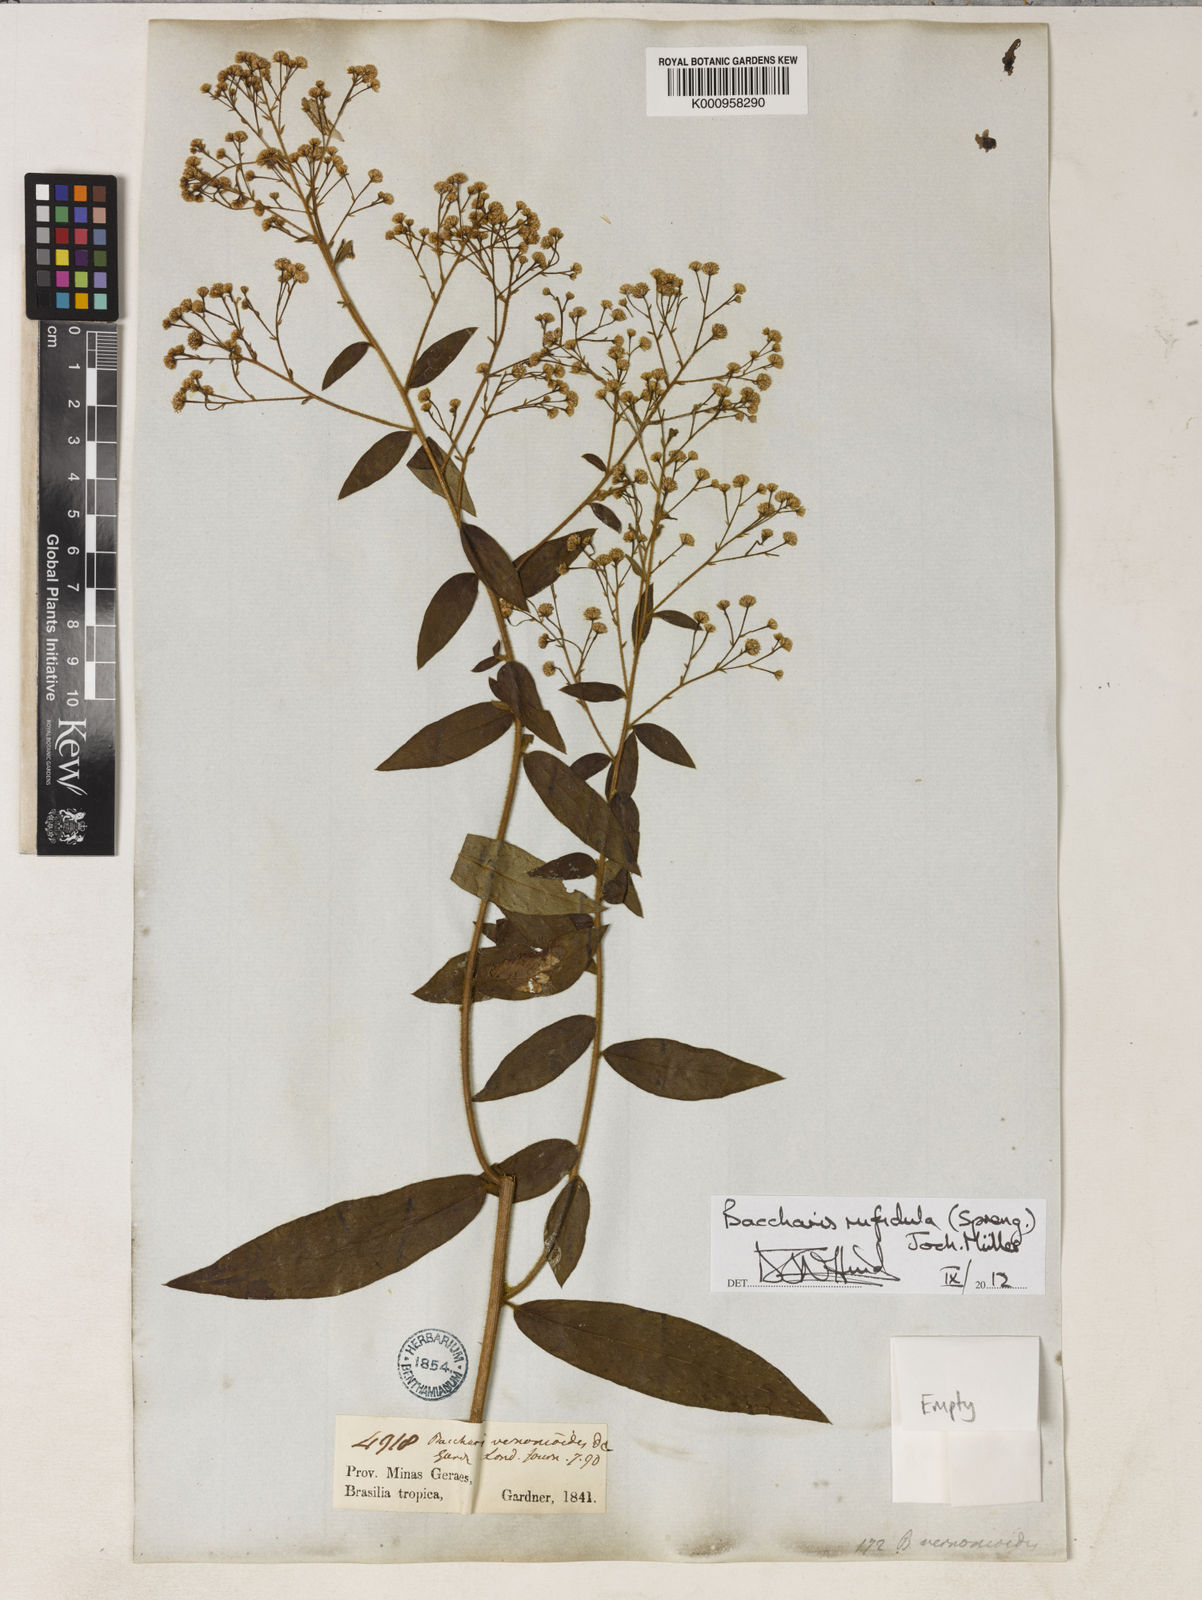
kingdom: Plantae
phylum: Tracheophyta
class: Magnoliopsida
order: Asterales
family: Asteraceae
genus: Baccharis
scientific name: Baccharis
